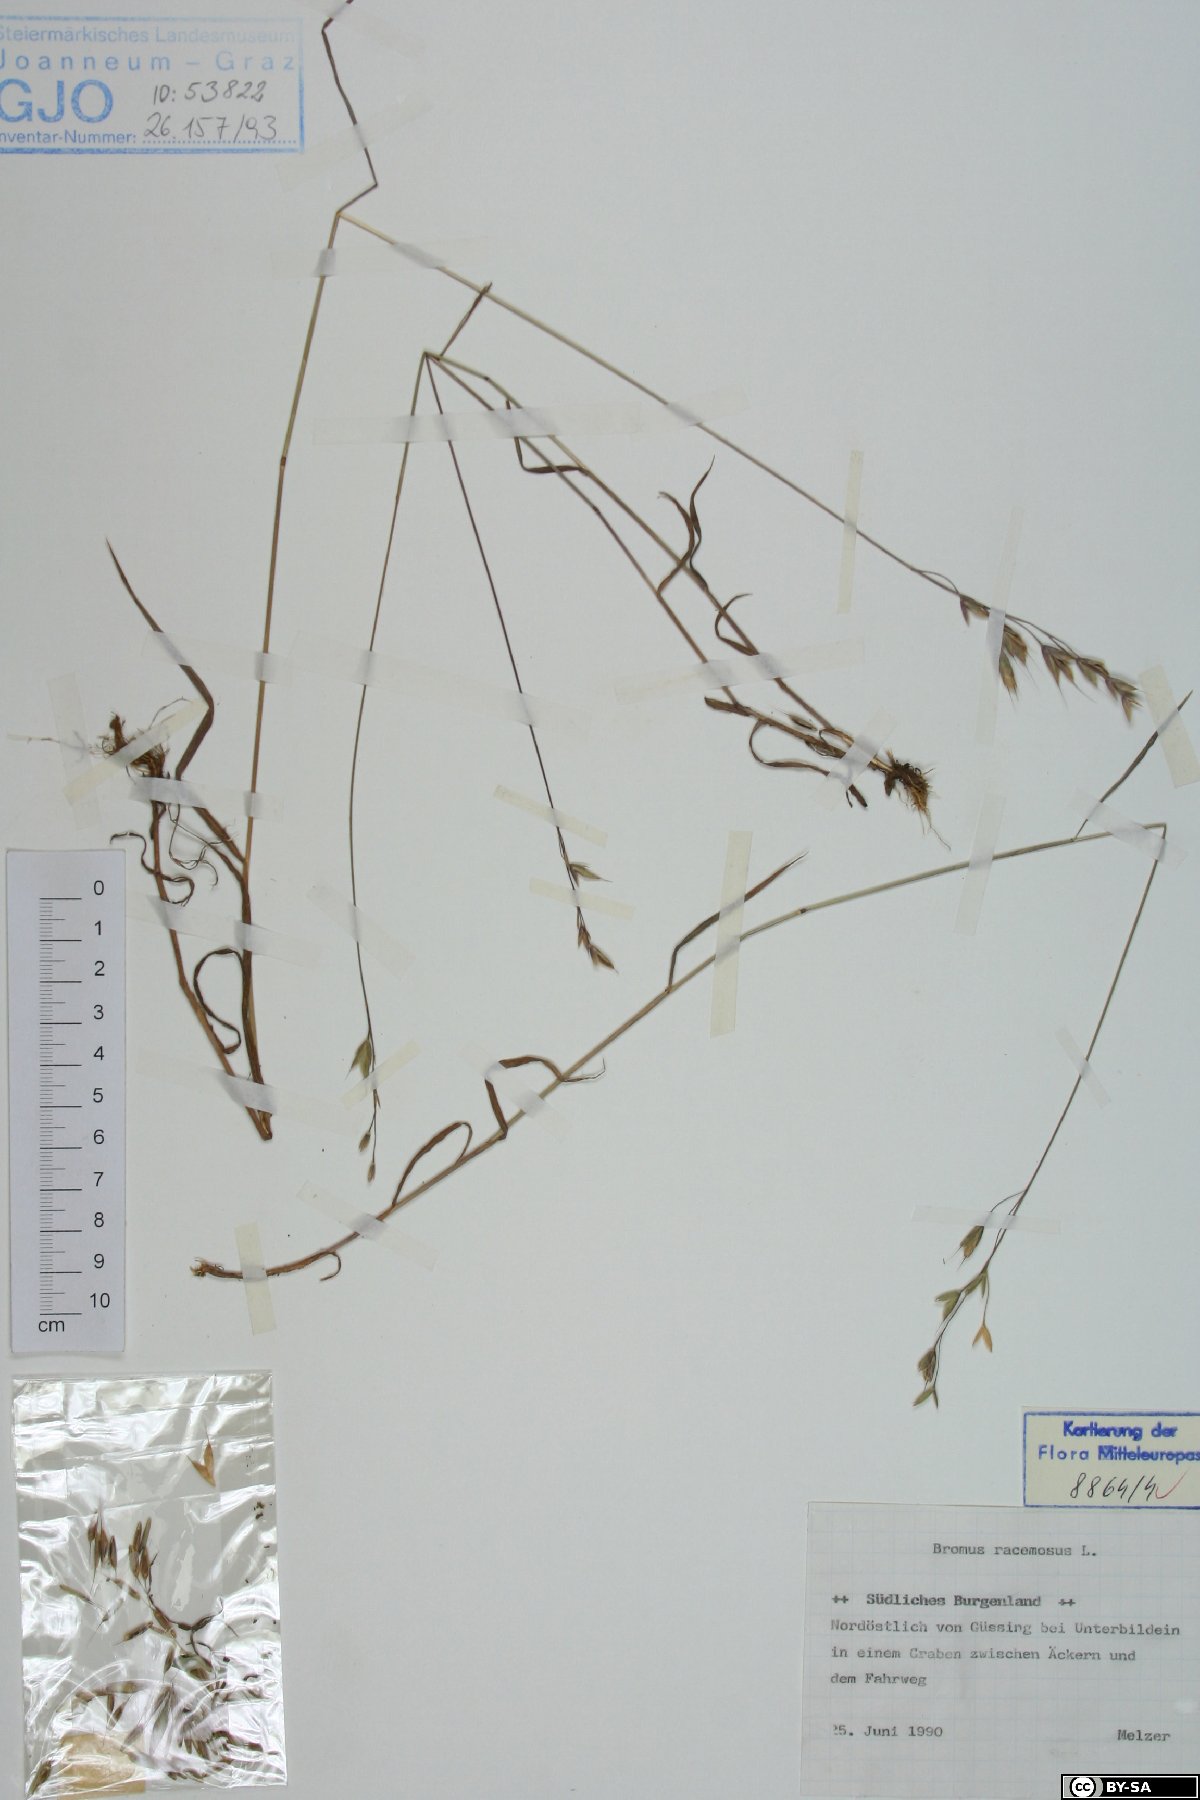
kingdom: Plantae
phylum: Tracheophyta
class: Liliopsida
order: Poales
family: Poaceae
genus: Bromus
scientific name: Bromus racemosus
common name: Bald brome
